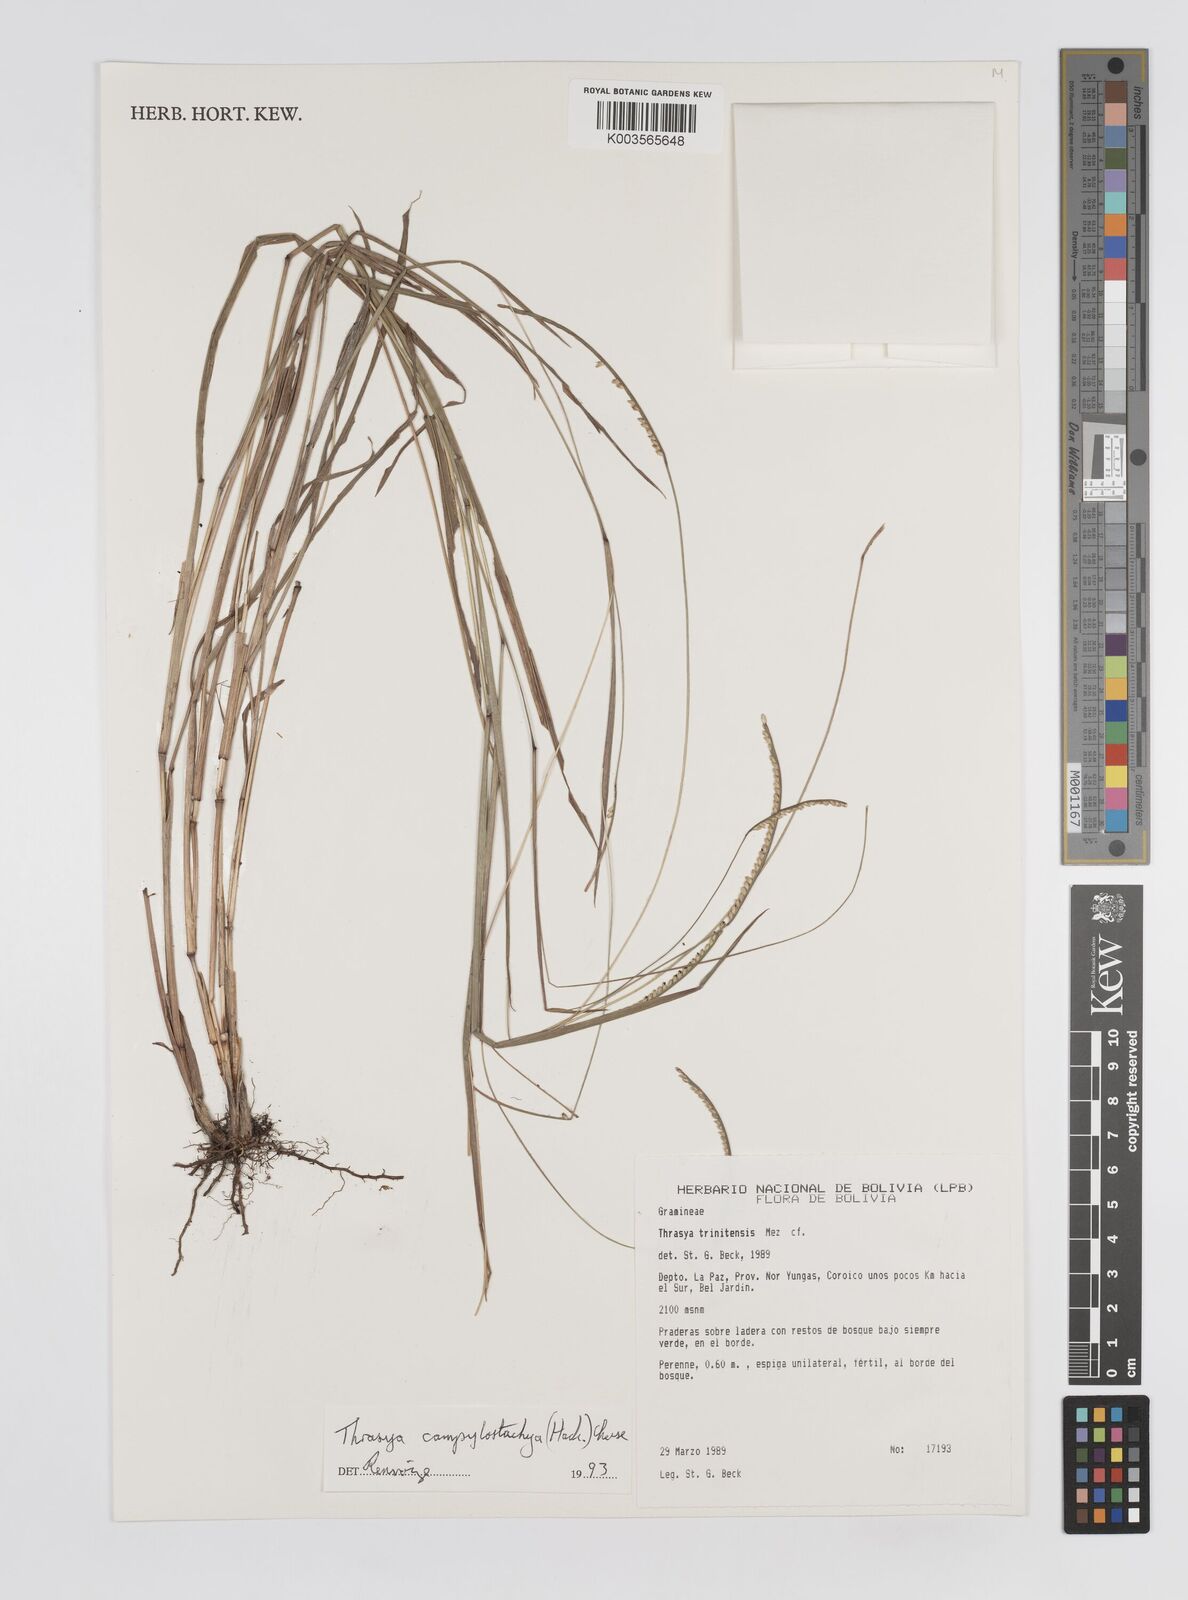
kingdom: Plantae
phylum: Tracheophyta
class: Liliopsida
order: Poales
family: Poaceae
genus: Paspalum
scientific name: Paspalum campylostachyum
